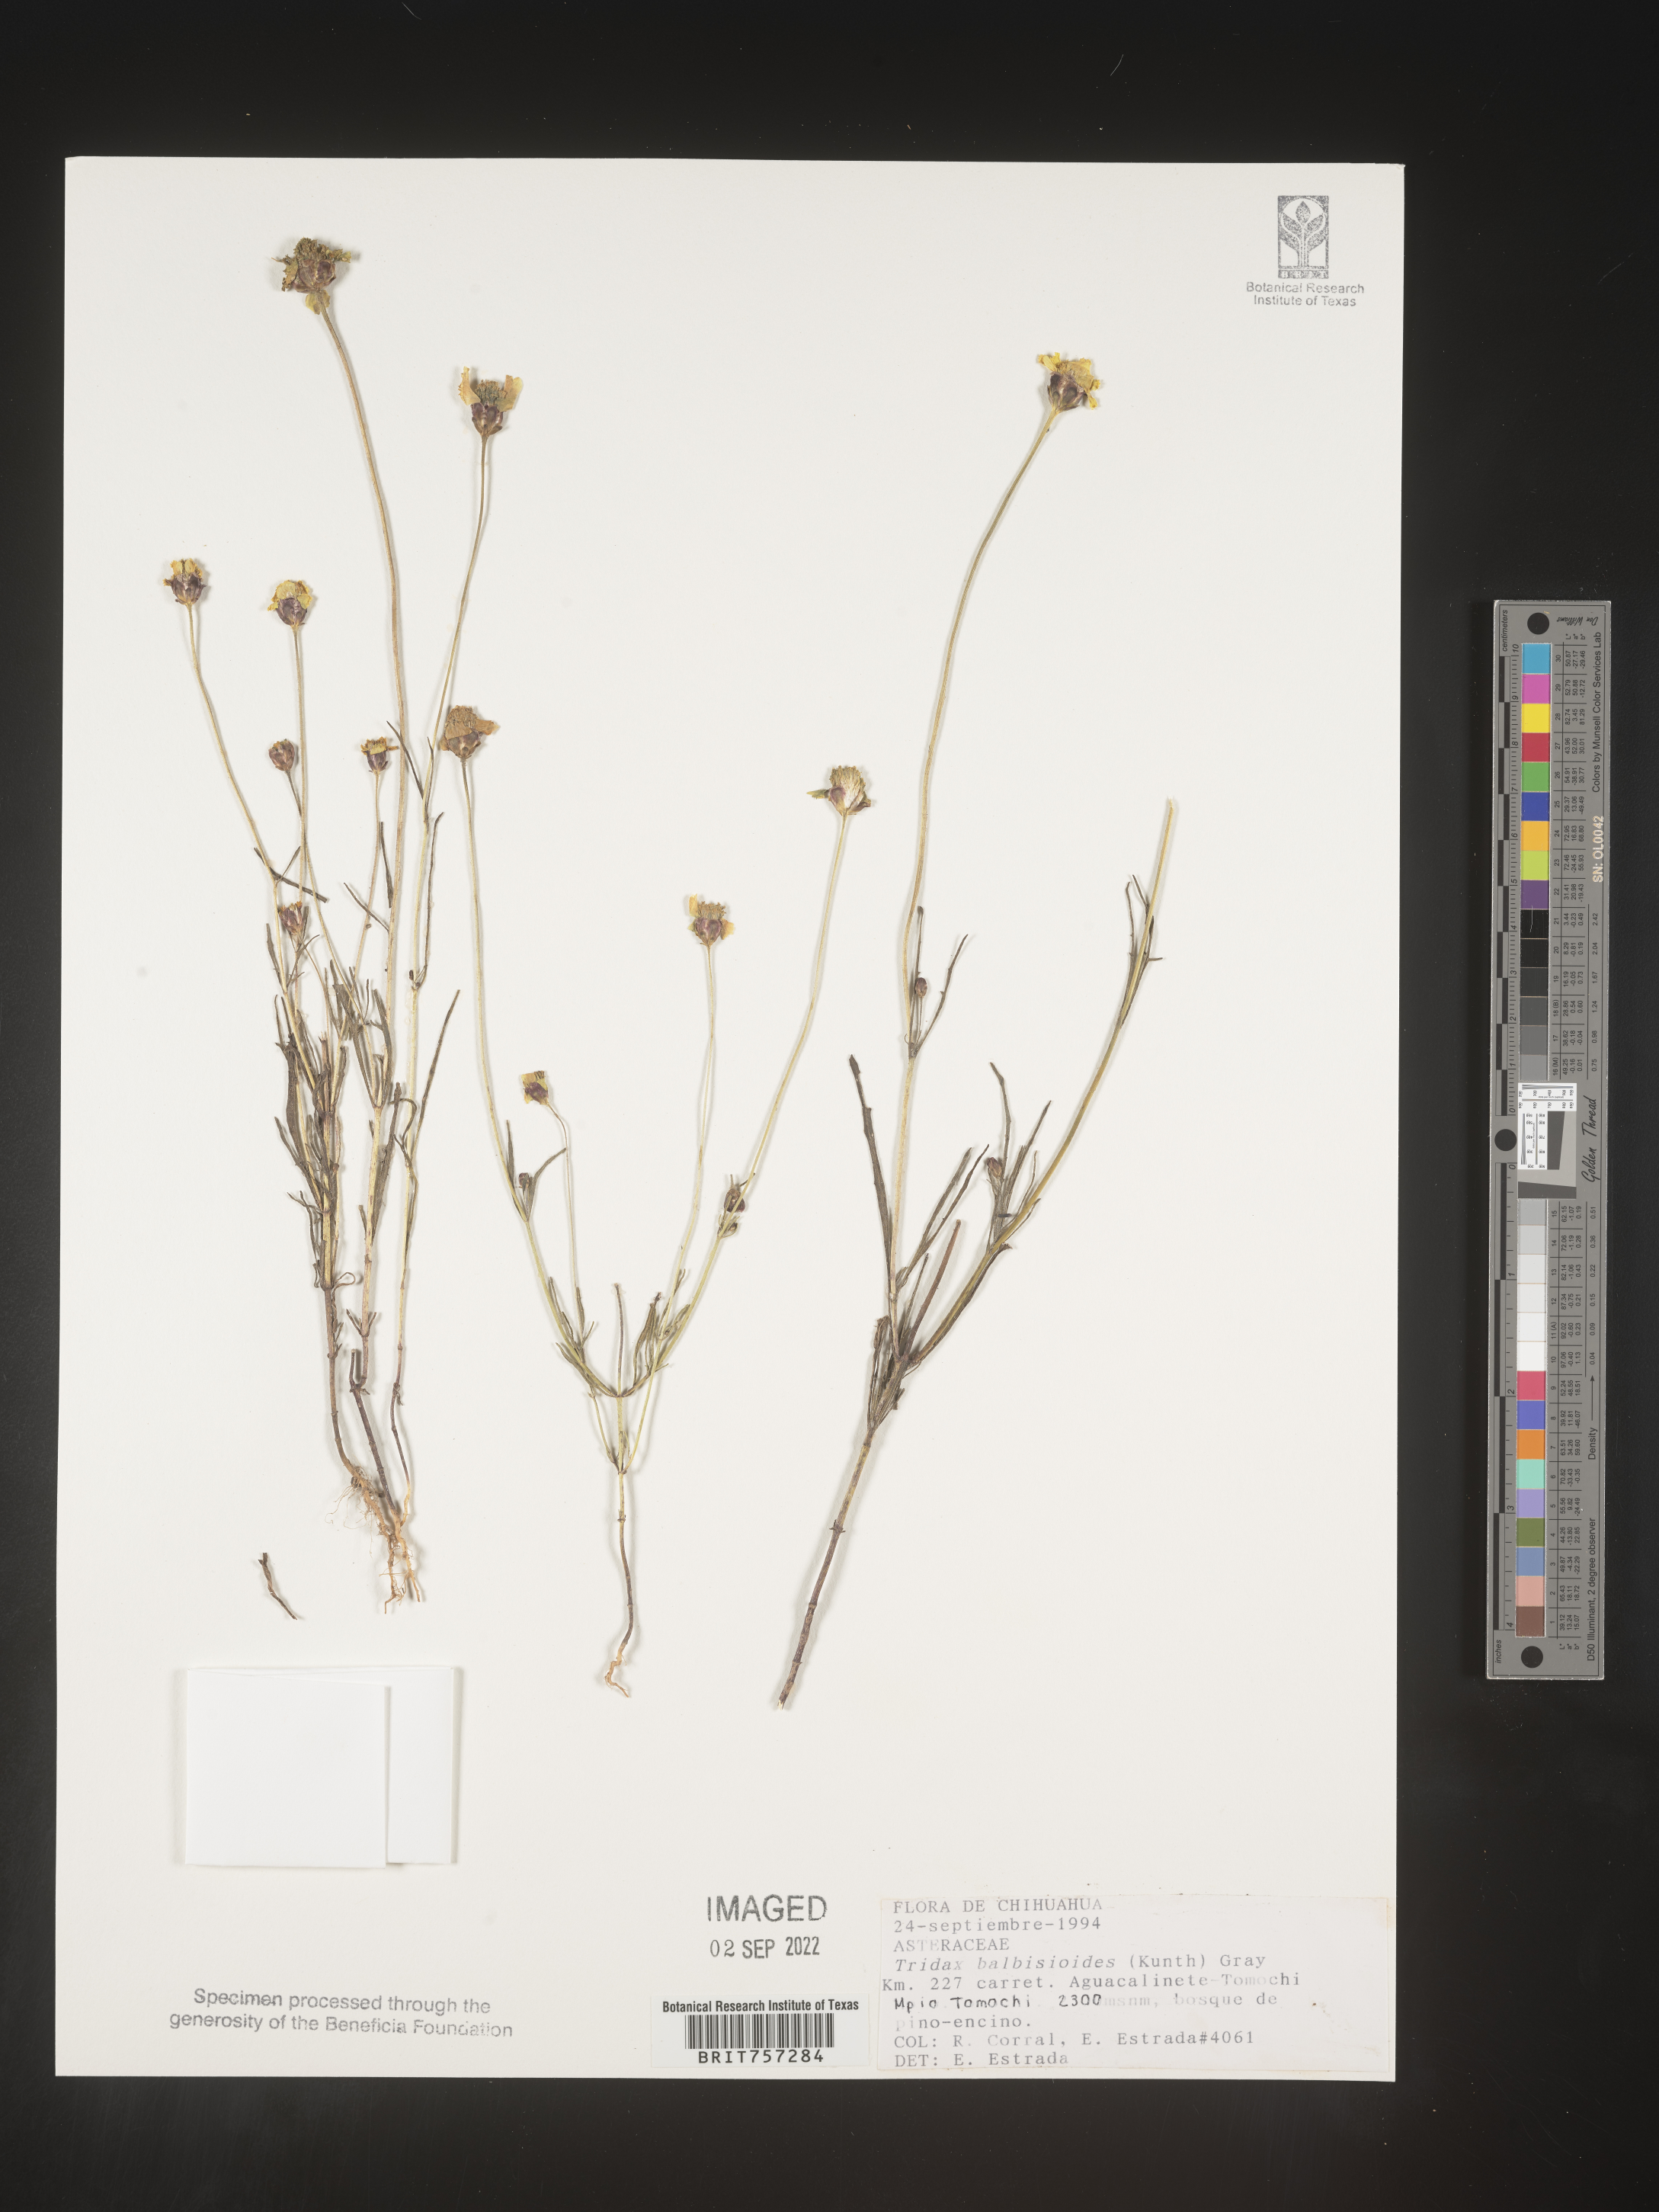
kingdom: Plantae
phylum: Tracheophyta
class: Magnoliopsida
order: Asterales
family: Asteraceae
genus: Tridax
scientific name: Tridax
